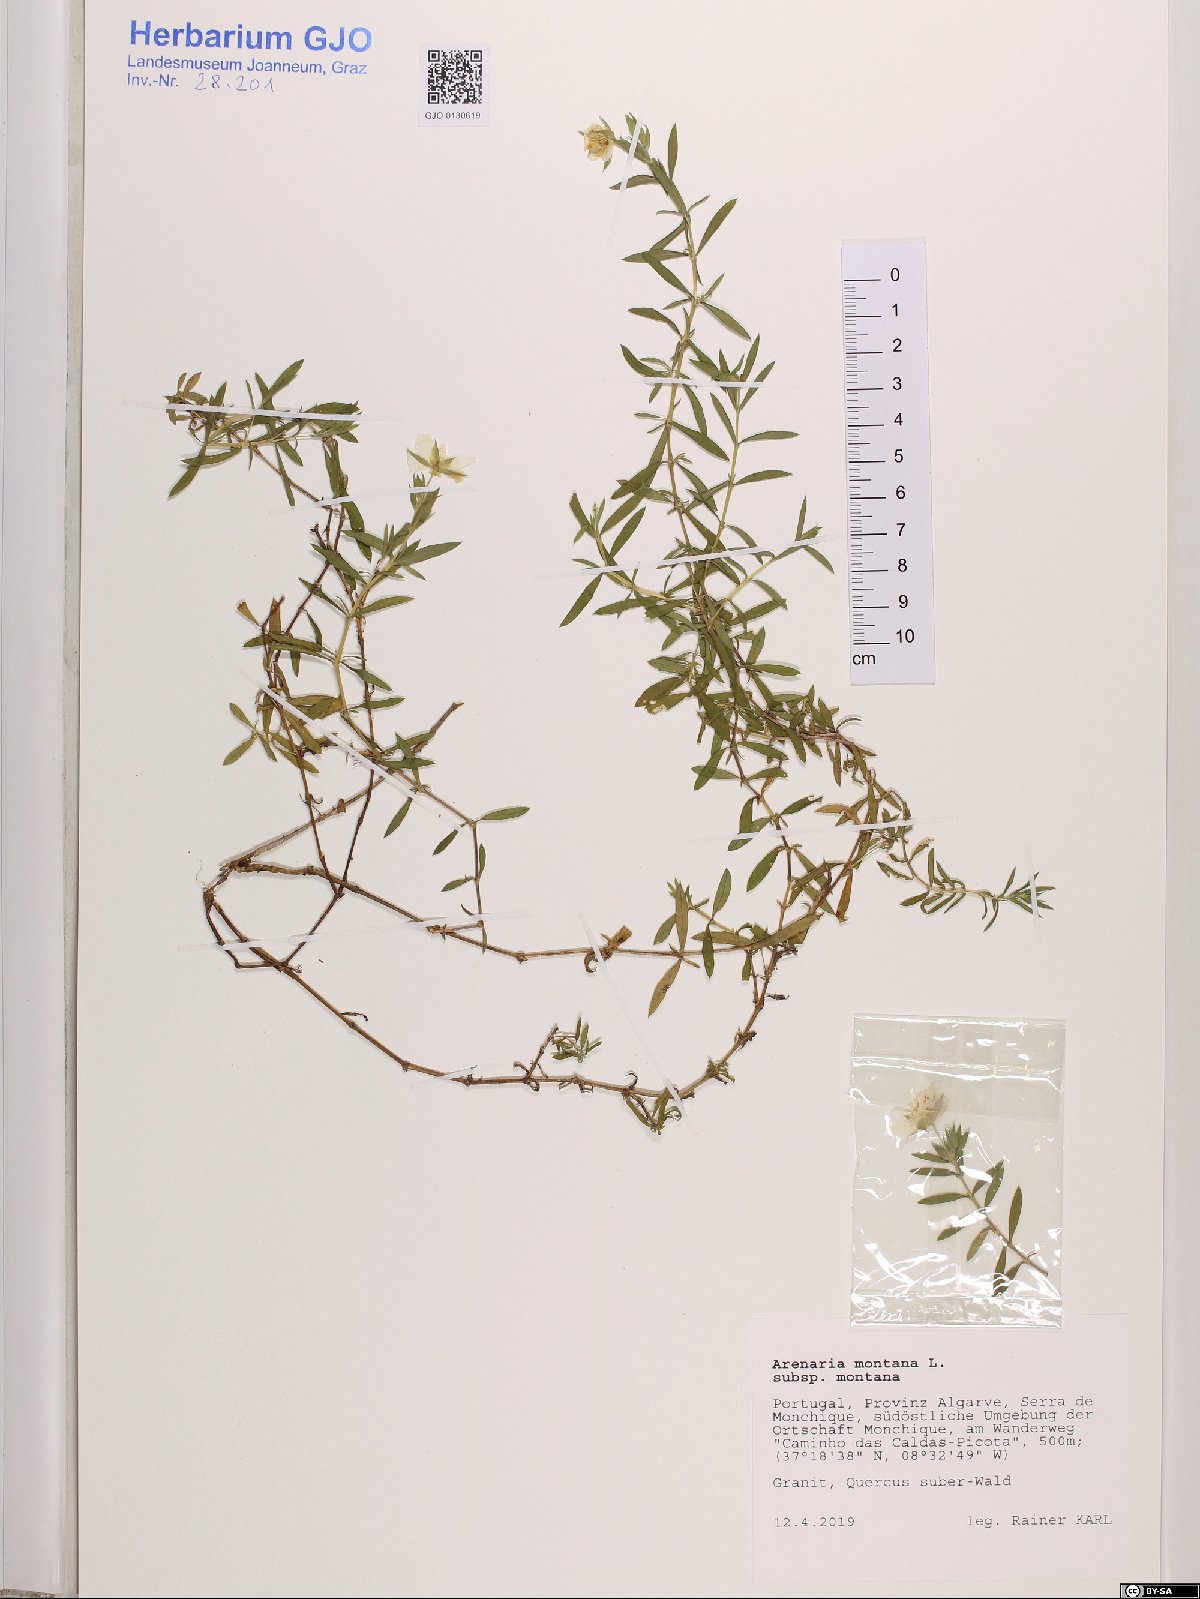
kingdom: Plantae
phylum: Tracheophyta
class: Magnoliopsida
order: Caryophyllales
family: Caryophyllaceae
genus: Arenaria
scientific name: Arenaria montana
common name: Mountain sandwort
